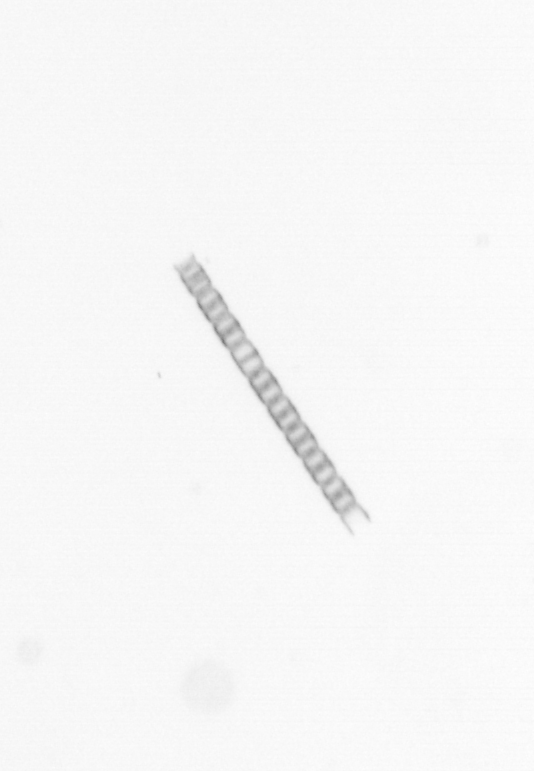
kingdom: Chromista
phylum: Ochrophyta
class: Bacillariophyceae
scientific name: Bacillariophyceae
